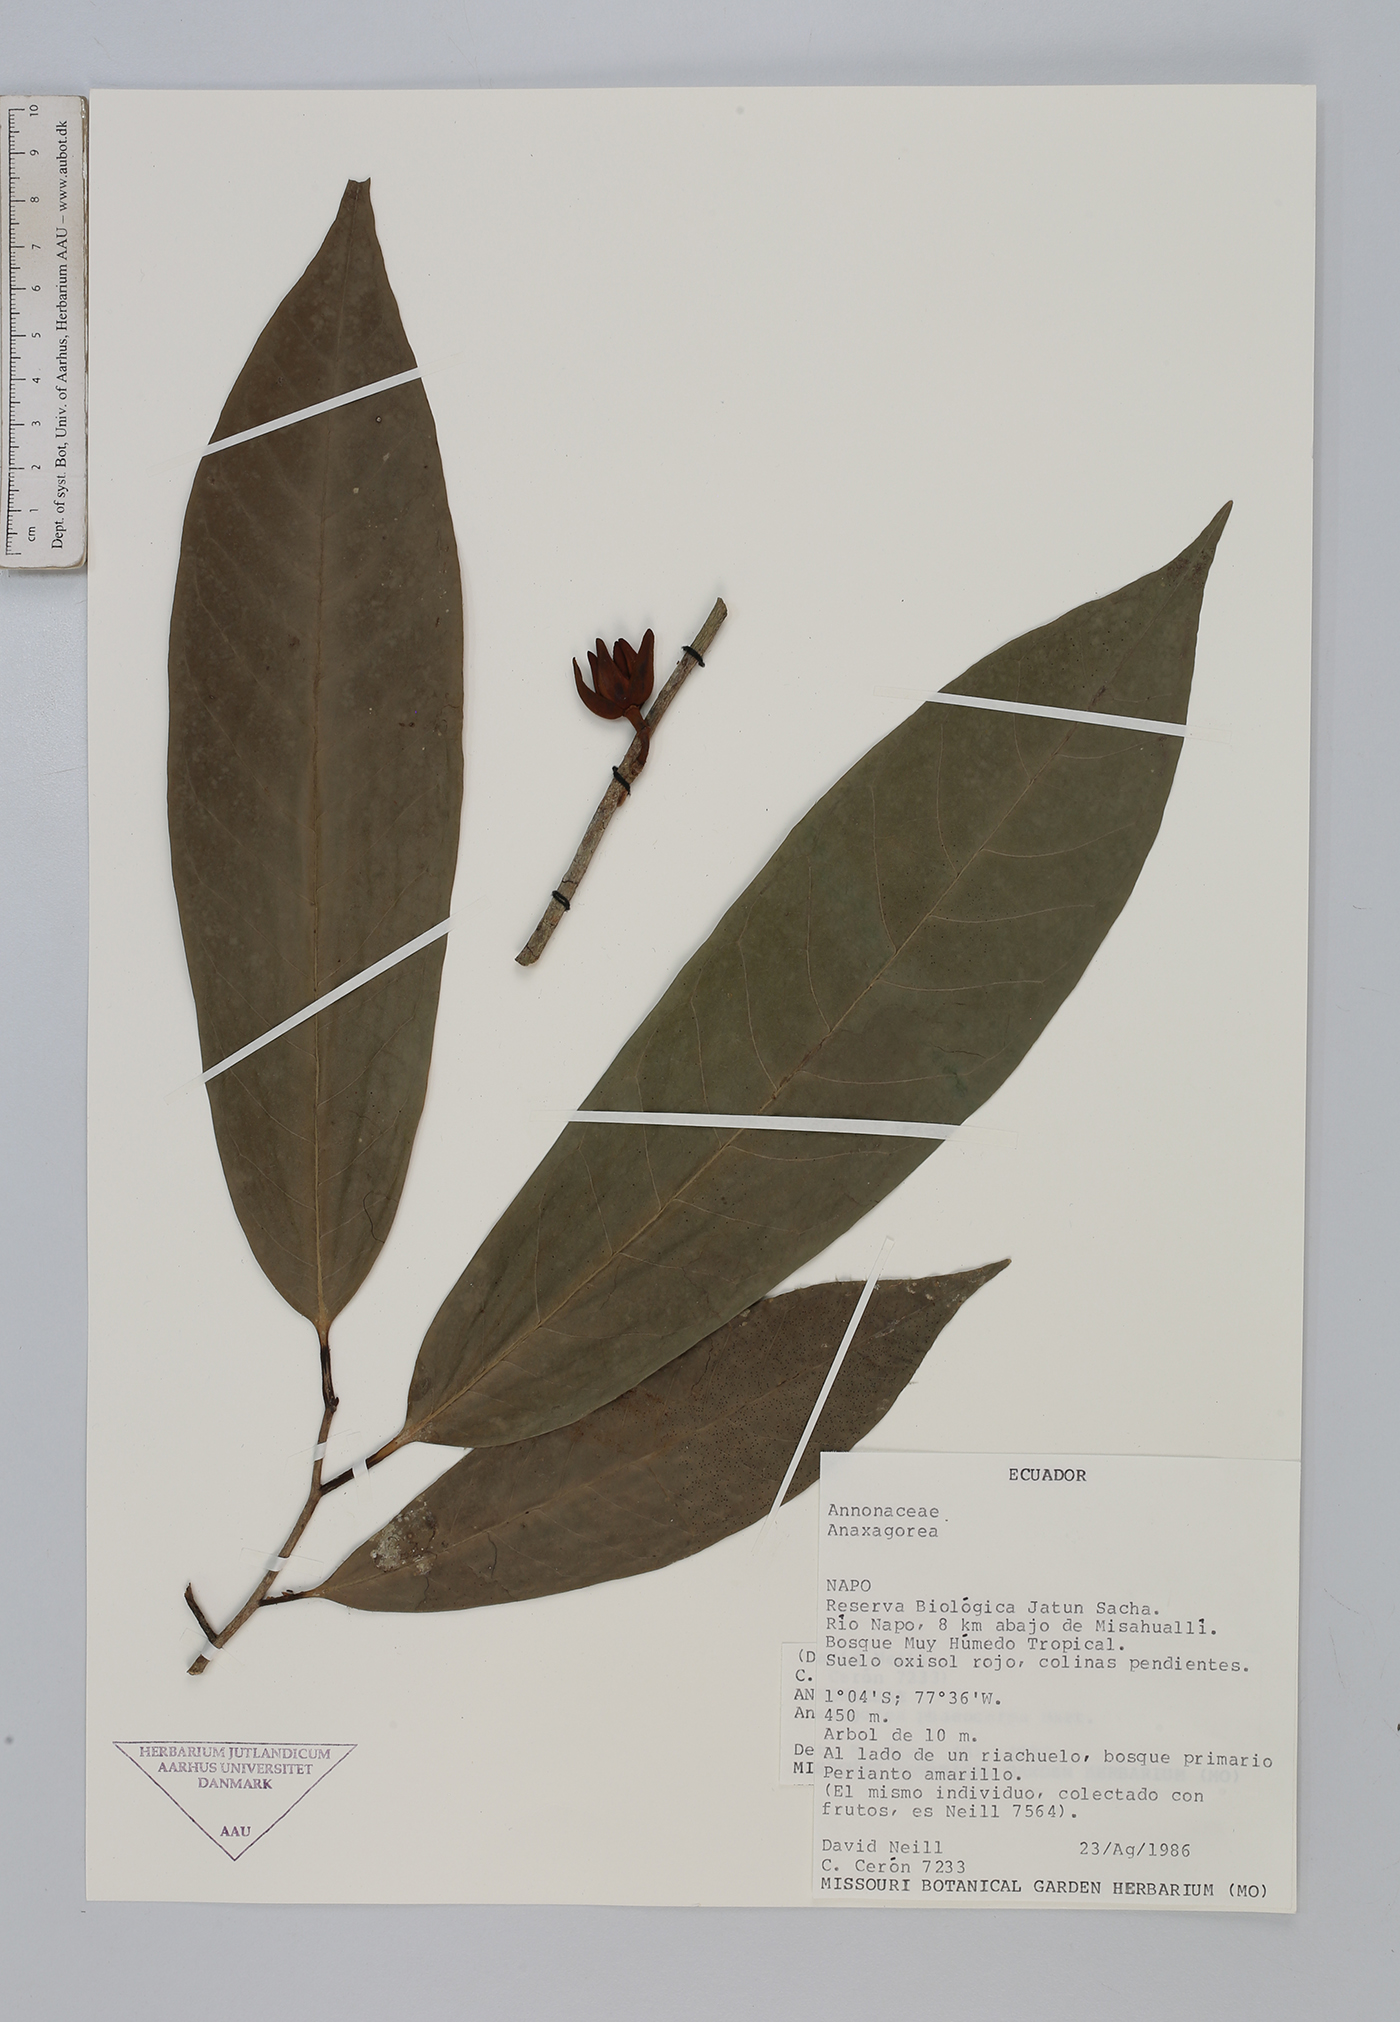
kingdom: Plantae
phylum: Tracheophyta
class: Magnoliopsida
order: Magnoliales
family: Annonaceae
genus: Anaxagorea
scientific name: Anaxagorea phaeocarpa
